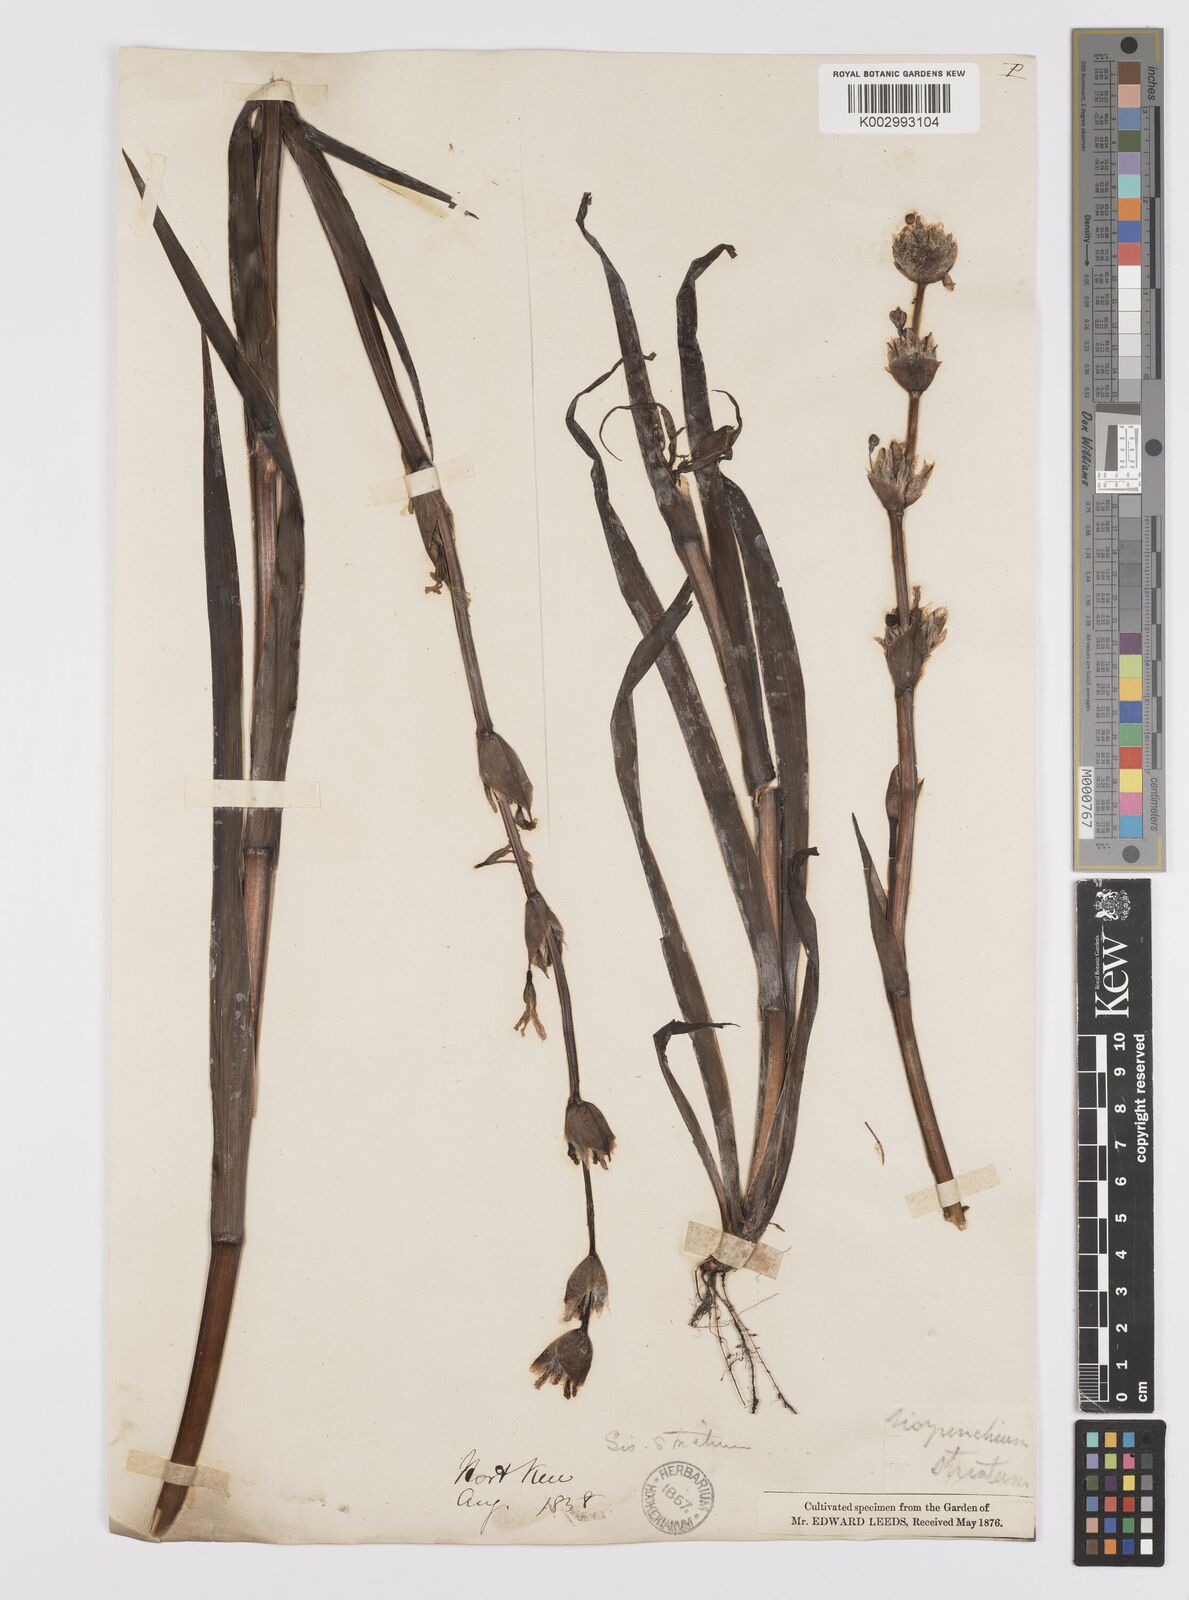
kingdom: Plantae
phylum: Tracheophyta
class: Liliopsida
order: Asparagales
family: Iridaceae
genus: Sisyrinchium
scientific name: Sisyrinchium striatum
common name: Pale yellow-eyed-grass
